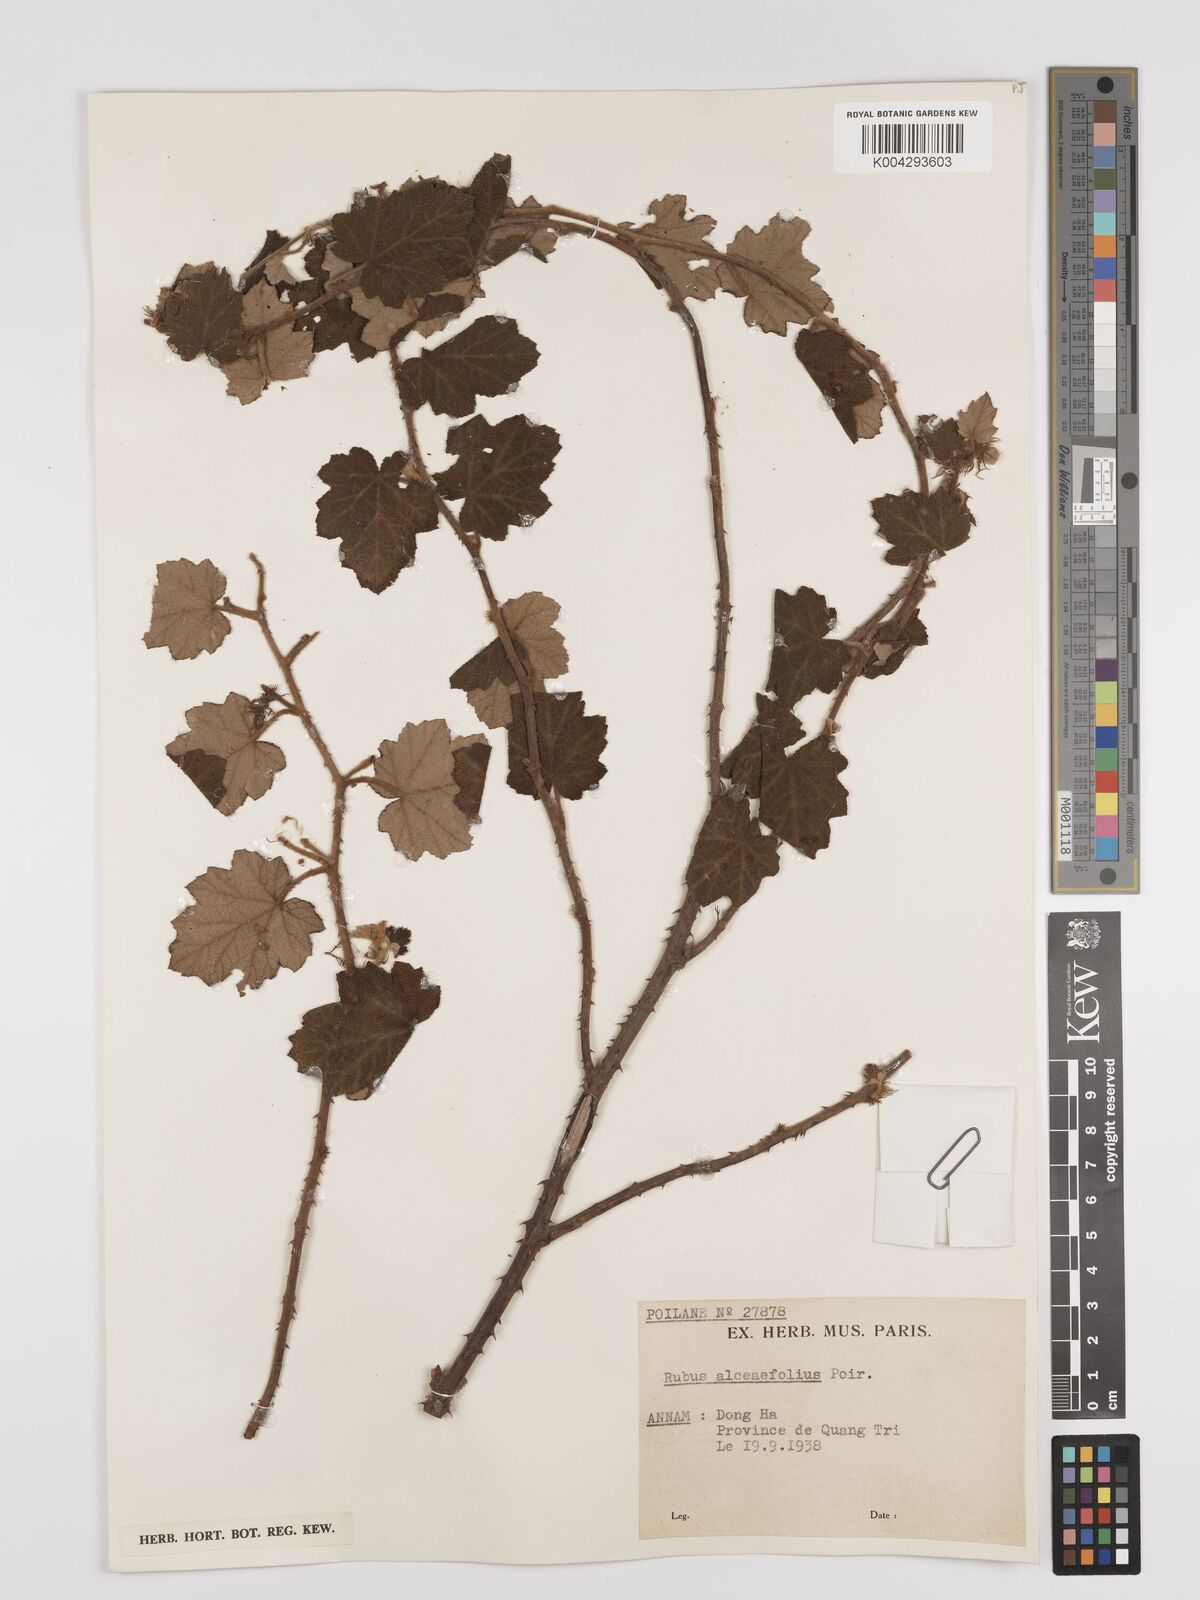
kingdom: Plantae
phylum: Tracheophyta
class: Magnoliopsida
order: Rosales
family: Rosaceae
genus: Rubus
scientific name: Rubus alceifolius
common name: Giant bramble
